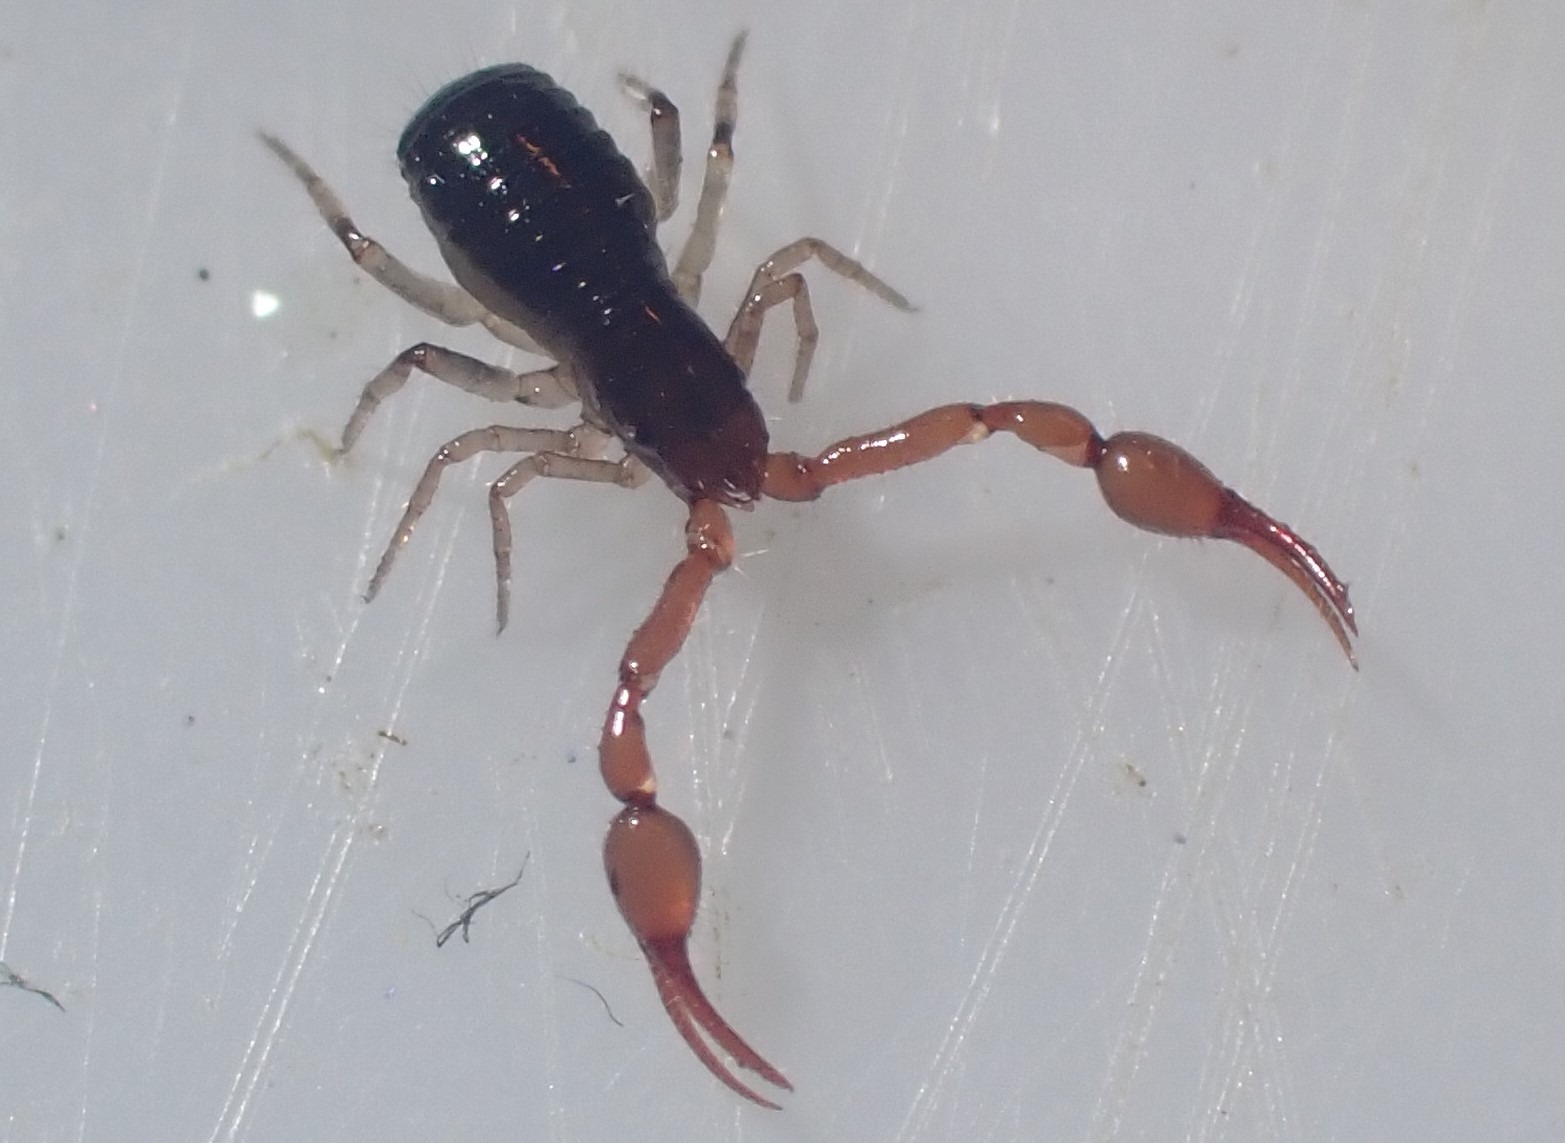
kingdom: Animalia
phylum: Arthropoda
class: Arachnida
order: Pseudoscorpiones
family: Neobisiidae
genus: Neobisium
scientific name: Neobisium carcinoides
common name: Almindelig mosskorpion
